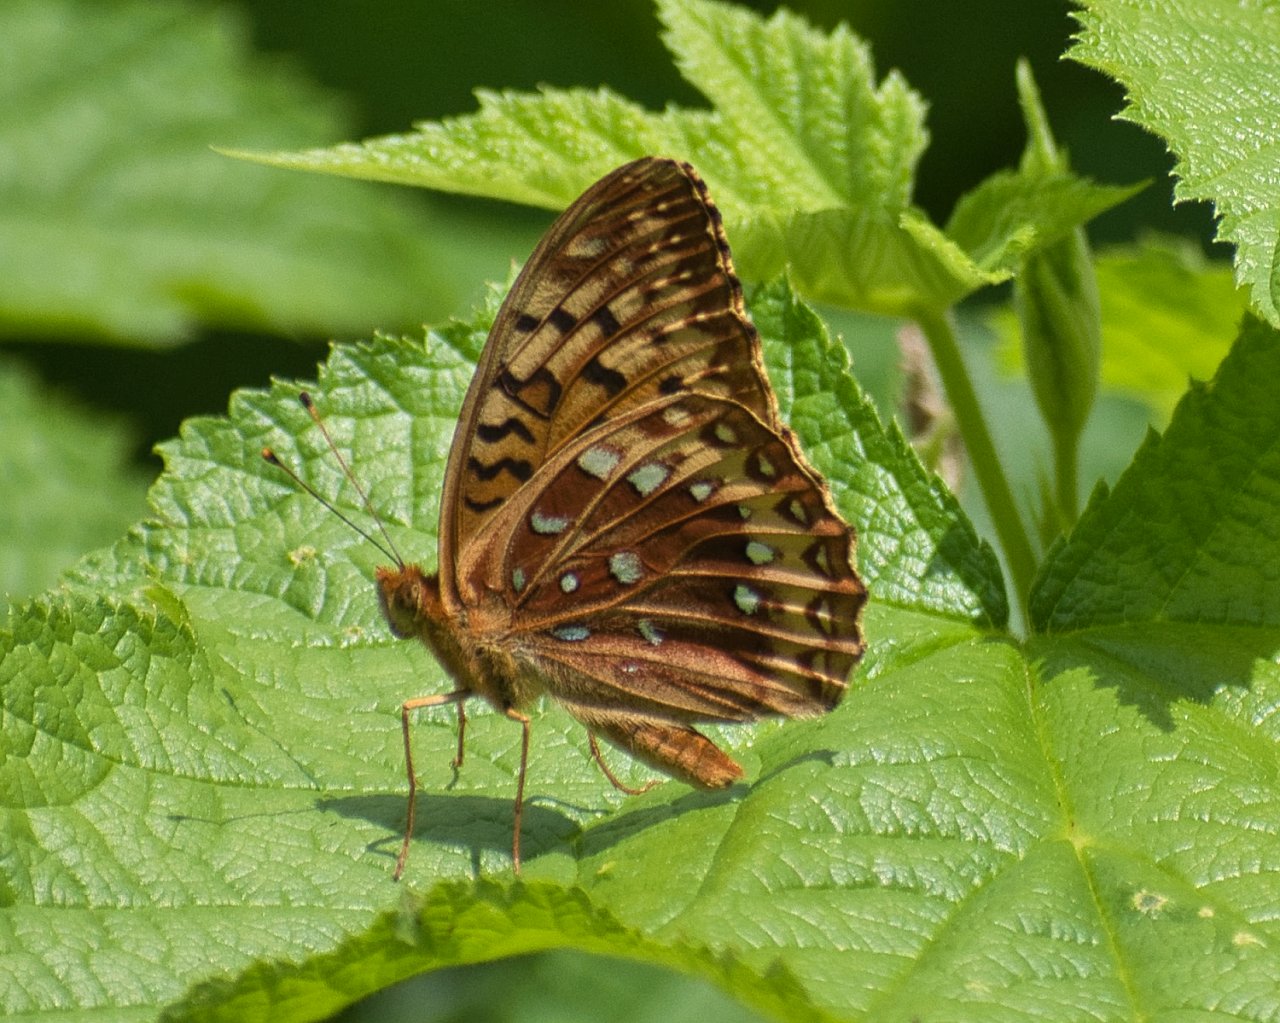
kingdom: Animalia
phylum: Arthropoda
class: Insecta
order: Lepidoptera
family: Nymphalidae
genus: Speyeria
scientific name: Speyeria cybele
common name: Great Spangled Fritillary
